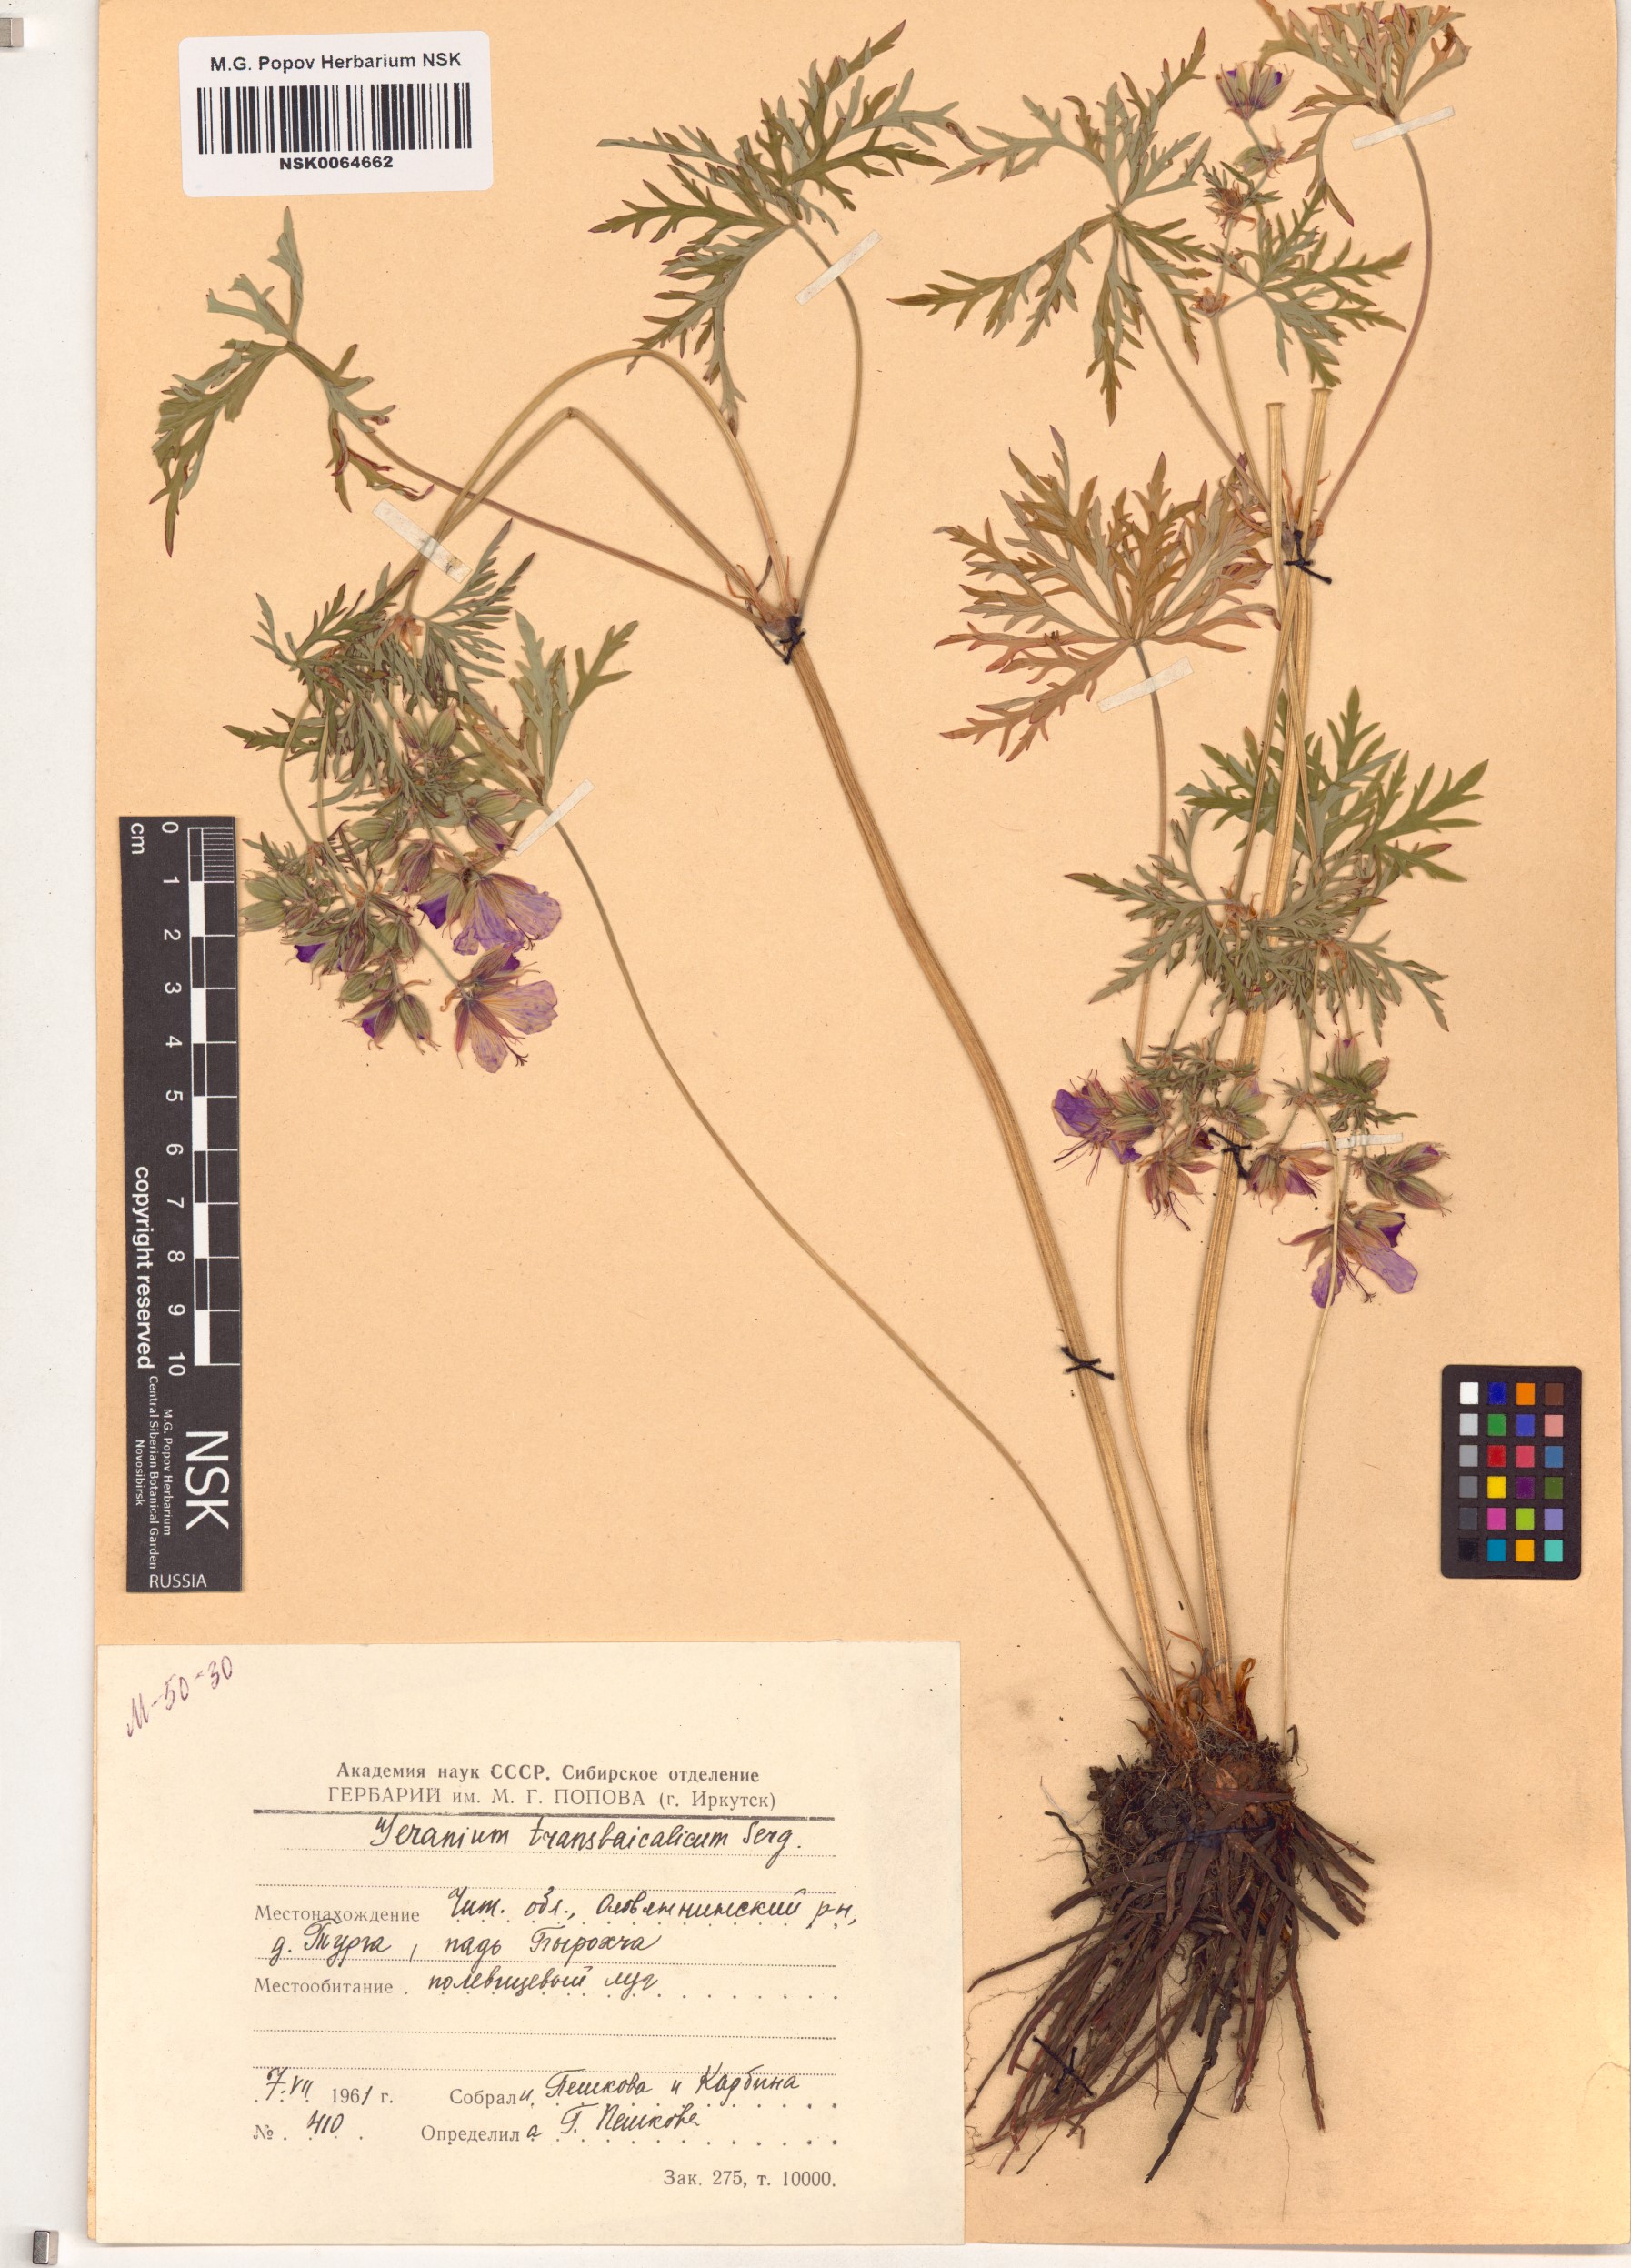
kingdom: Plantae
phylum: Tracheophyta
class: Magnoliopsida
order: Geraniales
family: Geraniaceae
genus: Geranium
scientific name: Geranium pratense
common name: Meadow crane's-bill
